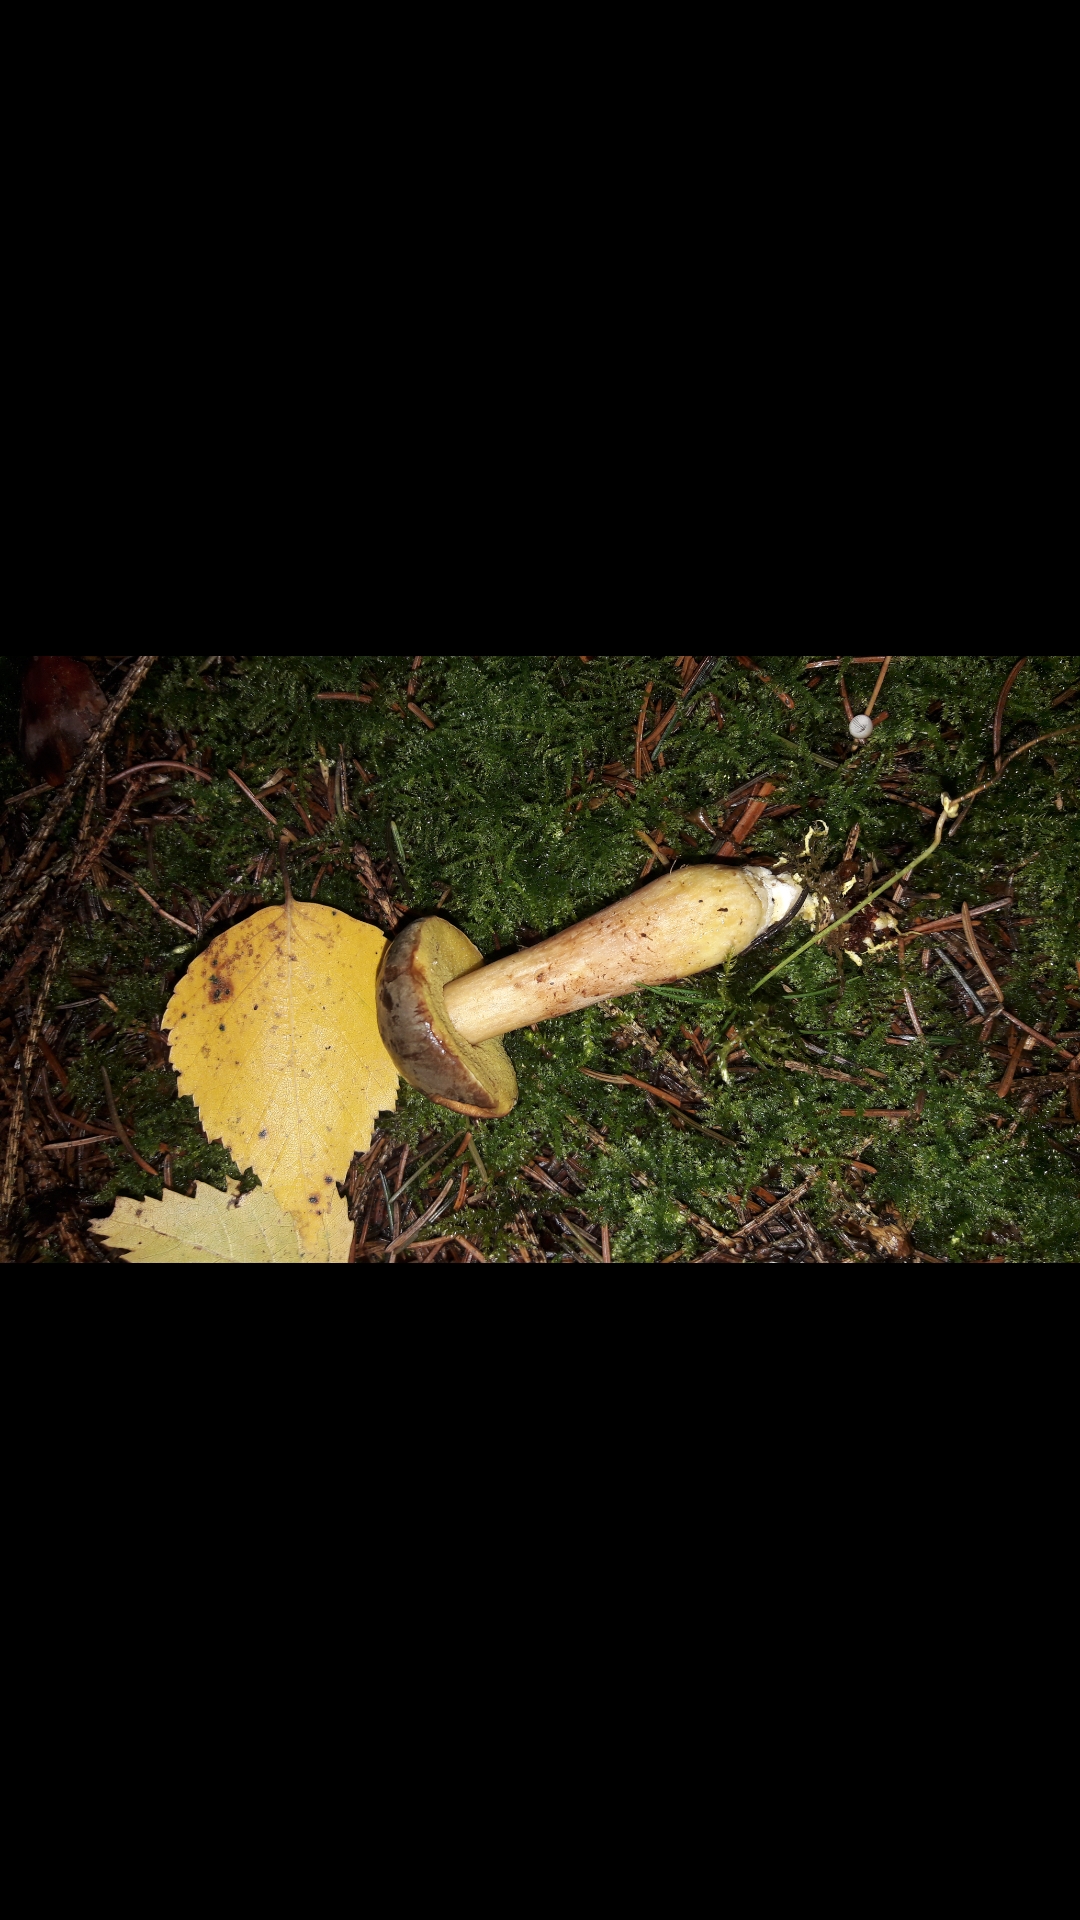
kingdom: Fungi
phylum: Basidiomycota
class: Agaricomycetes
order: Boletales
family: Boletaceae
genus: Xerocomus
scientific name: Xerocomus
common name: filtrørhat
